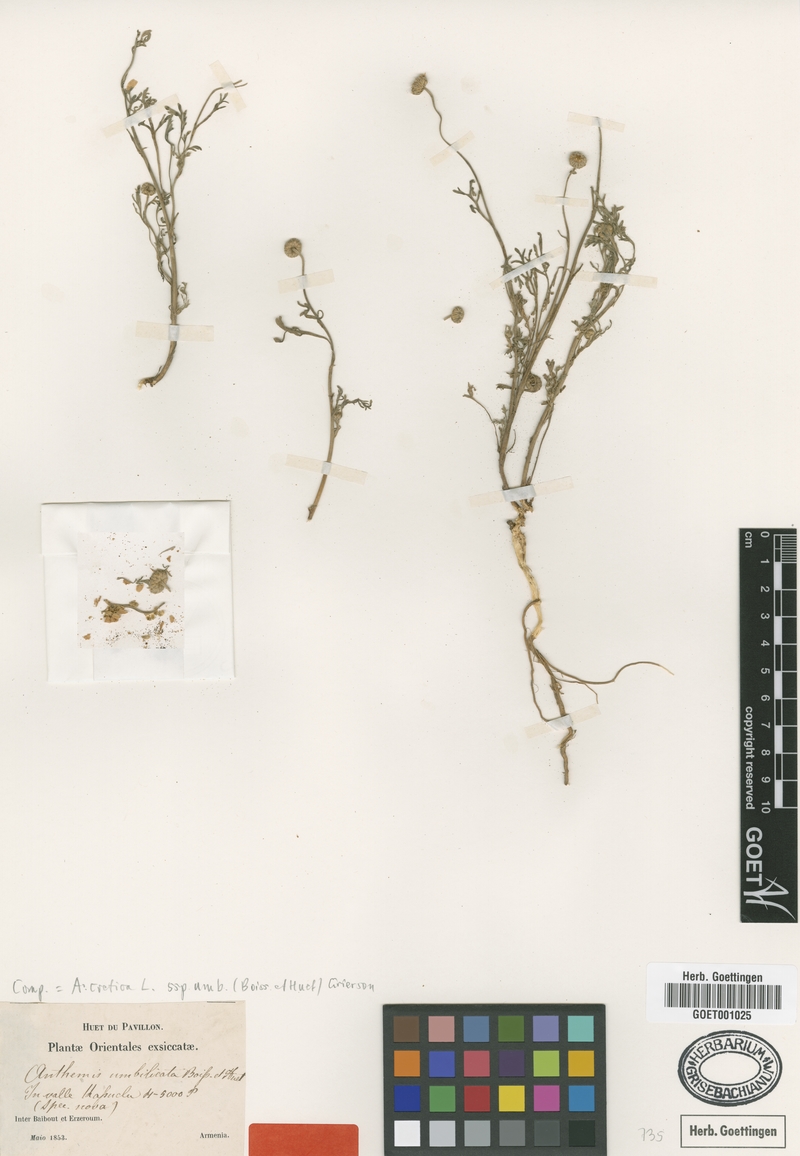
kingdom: Plantae
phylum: Tracheophyta
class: Magnoliopsida
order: Asterales
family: Asteraceae
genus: Anthemis
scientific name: Anthemis cretica
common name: Mountain dog-daisy
